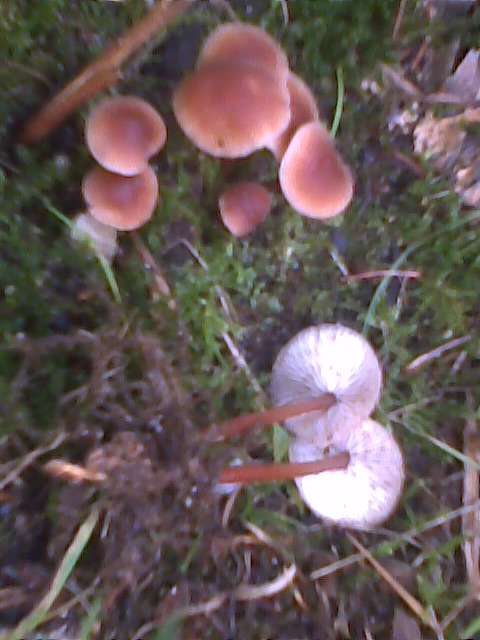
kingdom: Fungi
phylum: Basidiomycota
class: Agaricomycetes
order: Agaricales
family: Omphalotaceae
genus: Gymnopus
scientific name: Gymnopus erythropus
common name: rødstokket fladhat
